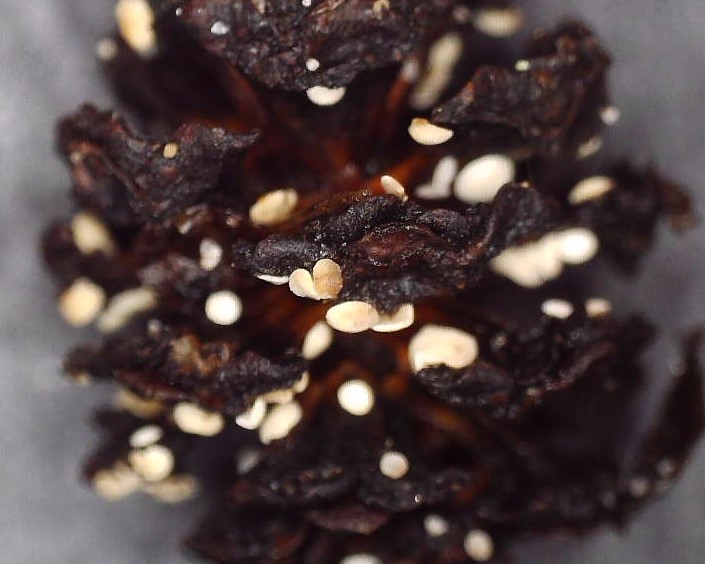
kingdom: Fungi
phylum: Ascomycota
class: Leotiomycetes
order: Helotiales
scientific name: Helotiales
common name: stilkskiveordenen
